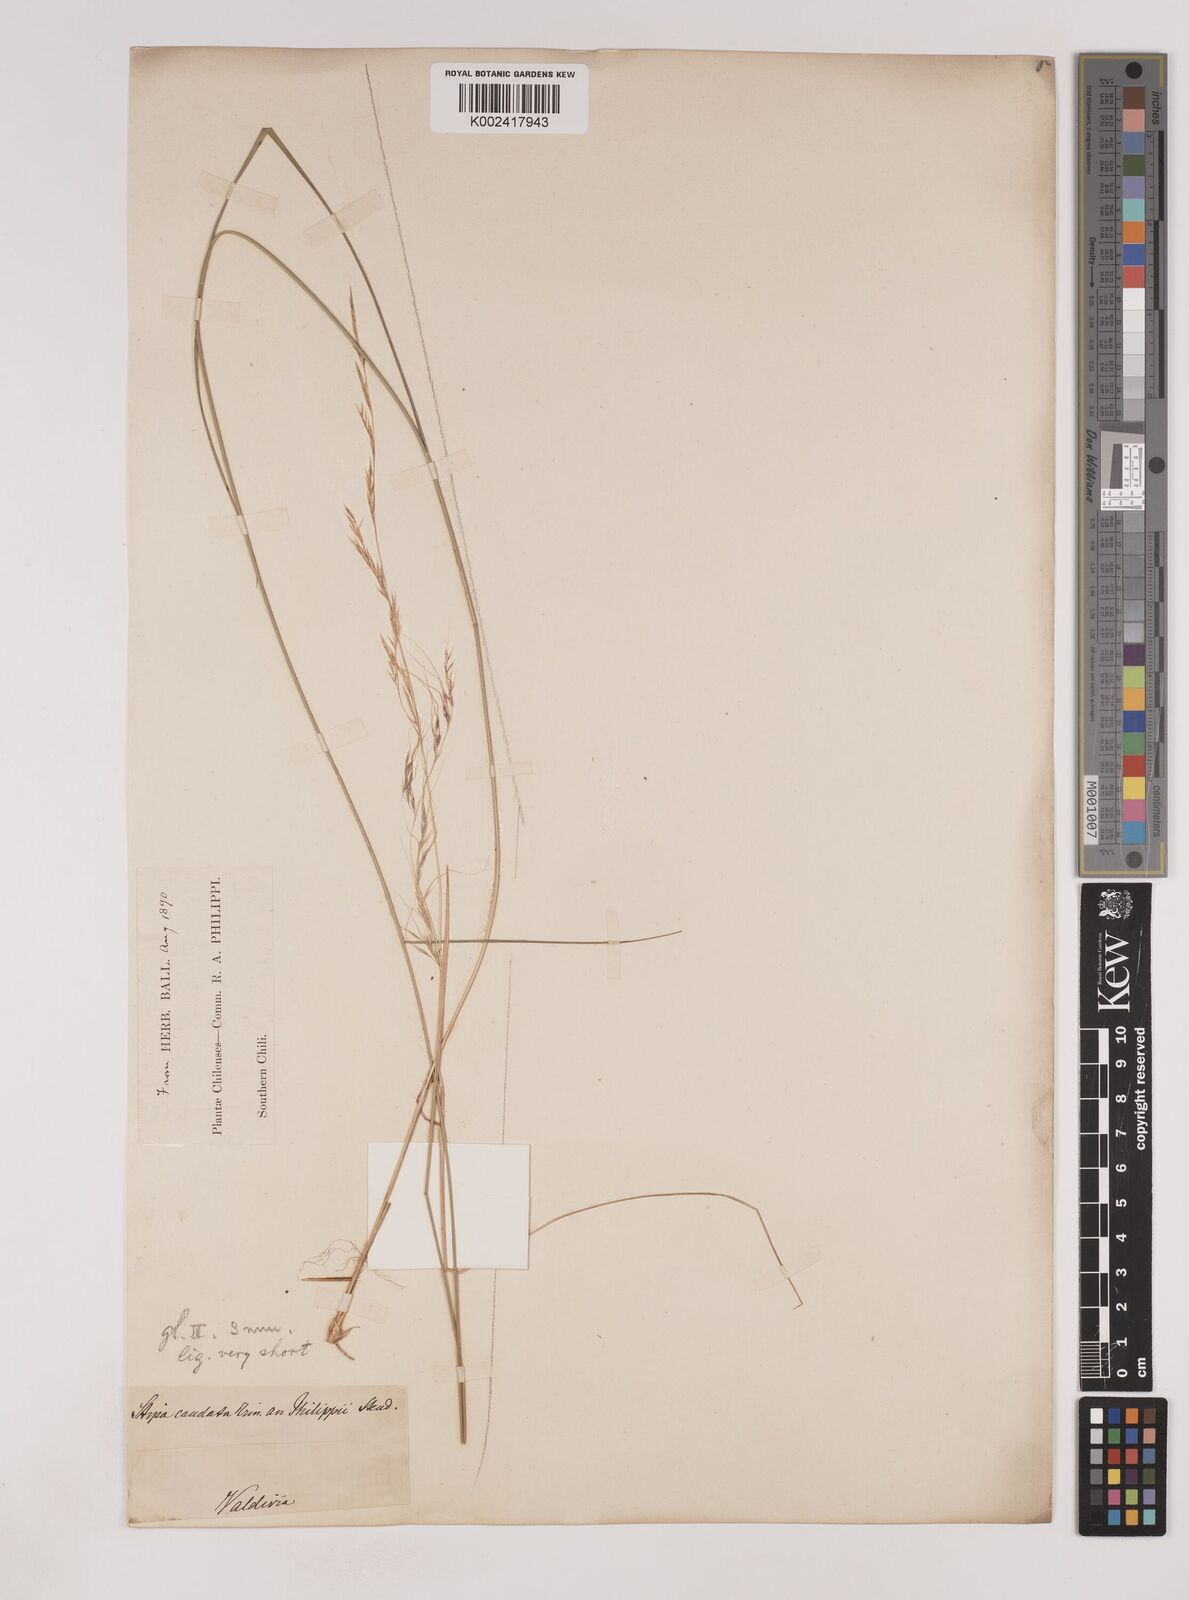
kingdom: Plantae
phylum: Tracheophyta
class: Liliopsida
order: Poales
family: Poaceae
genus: Nassella
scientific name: Nassella philippii
